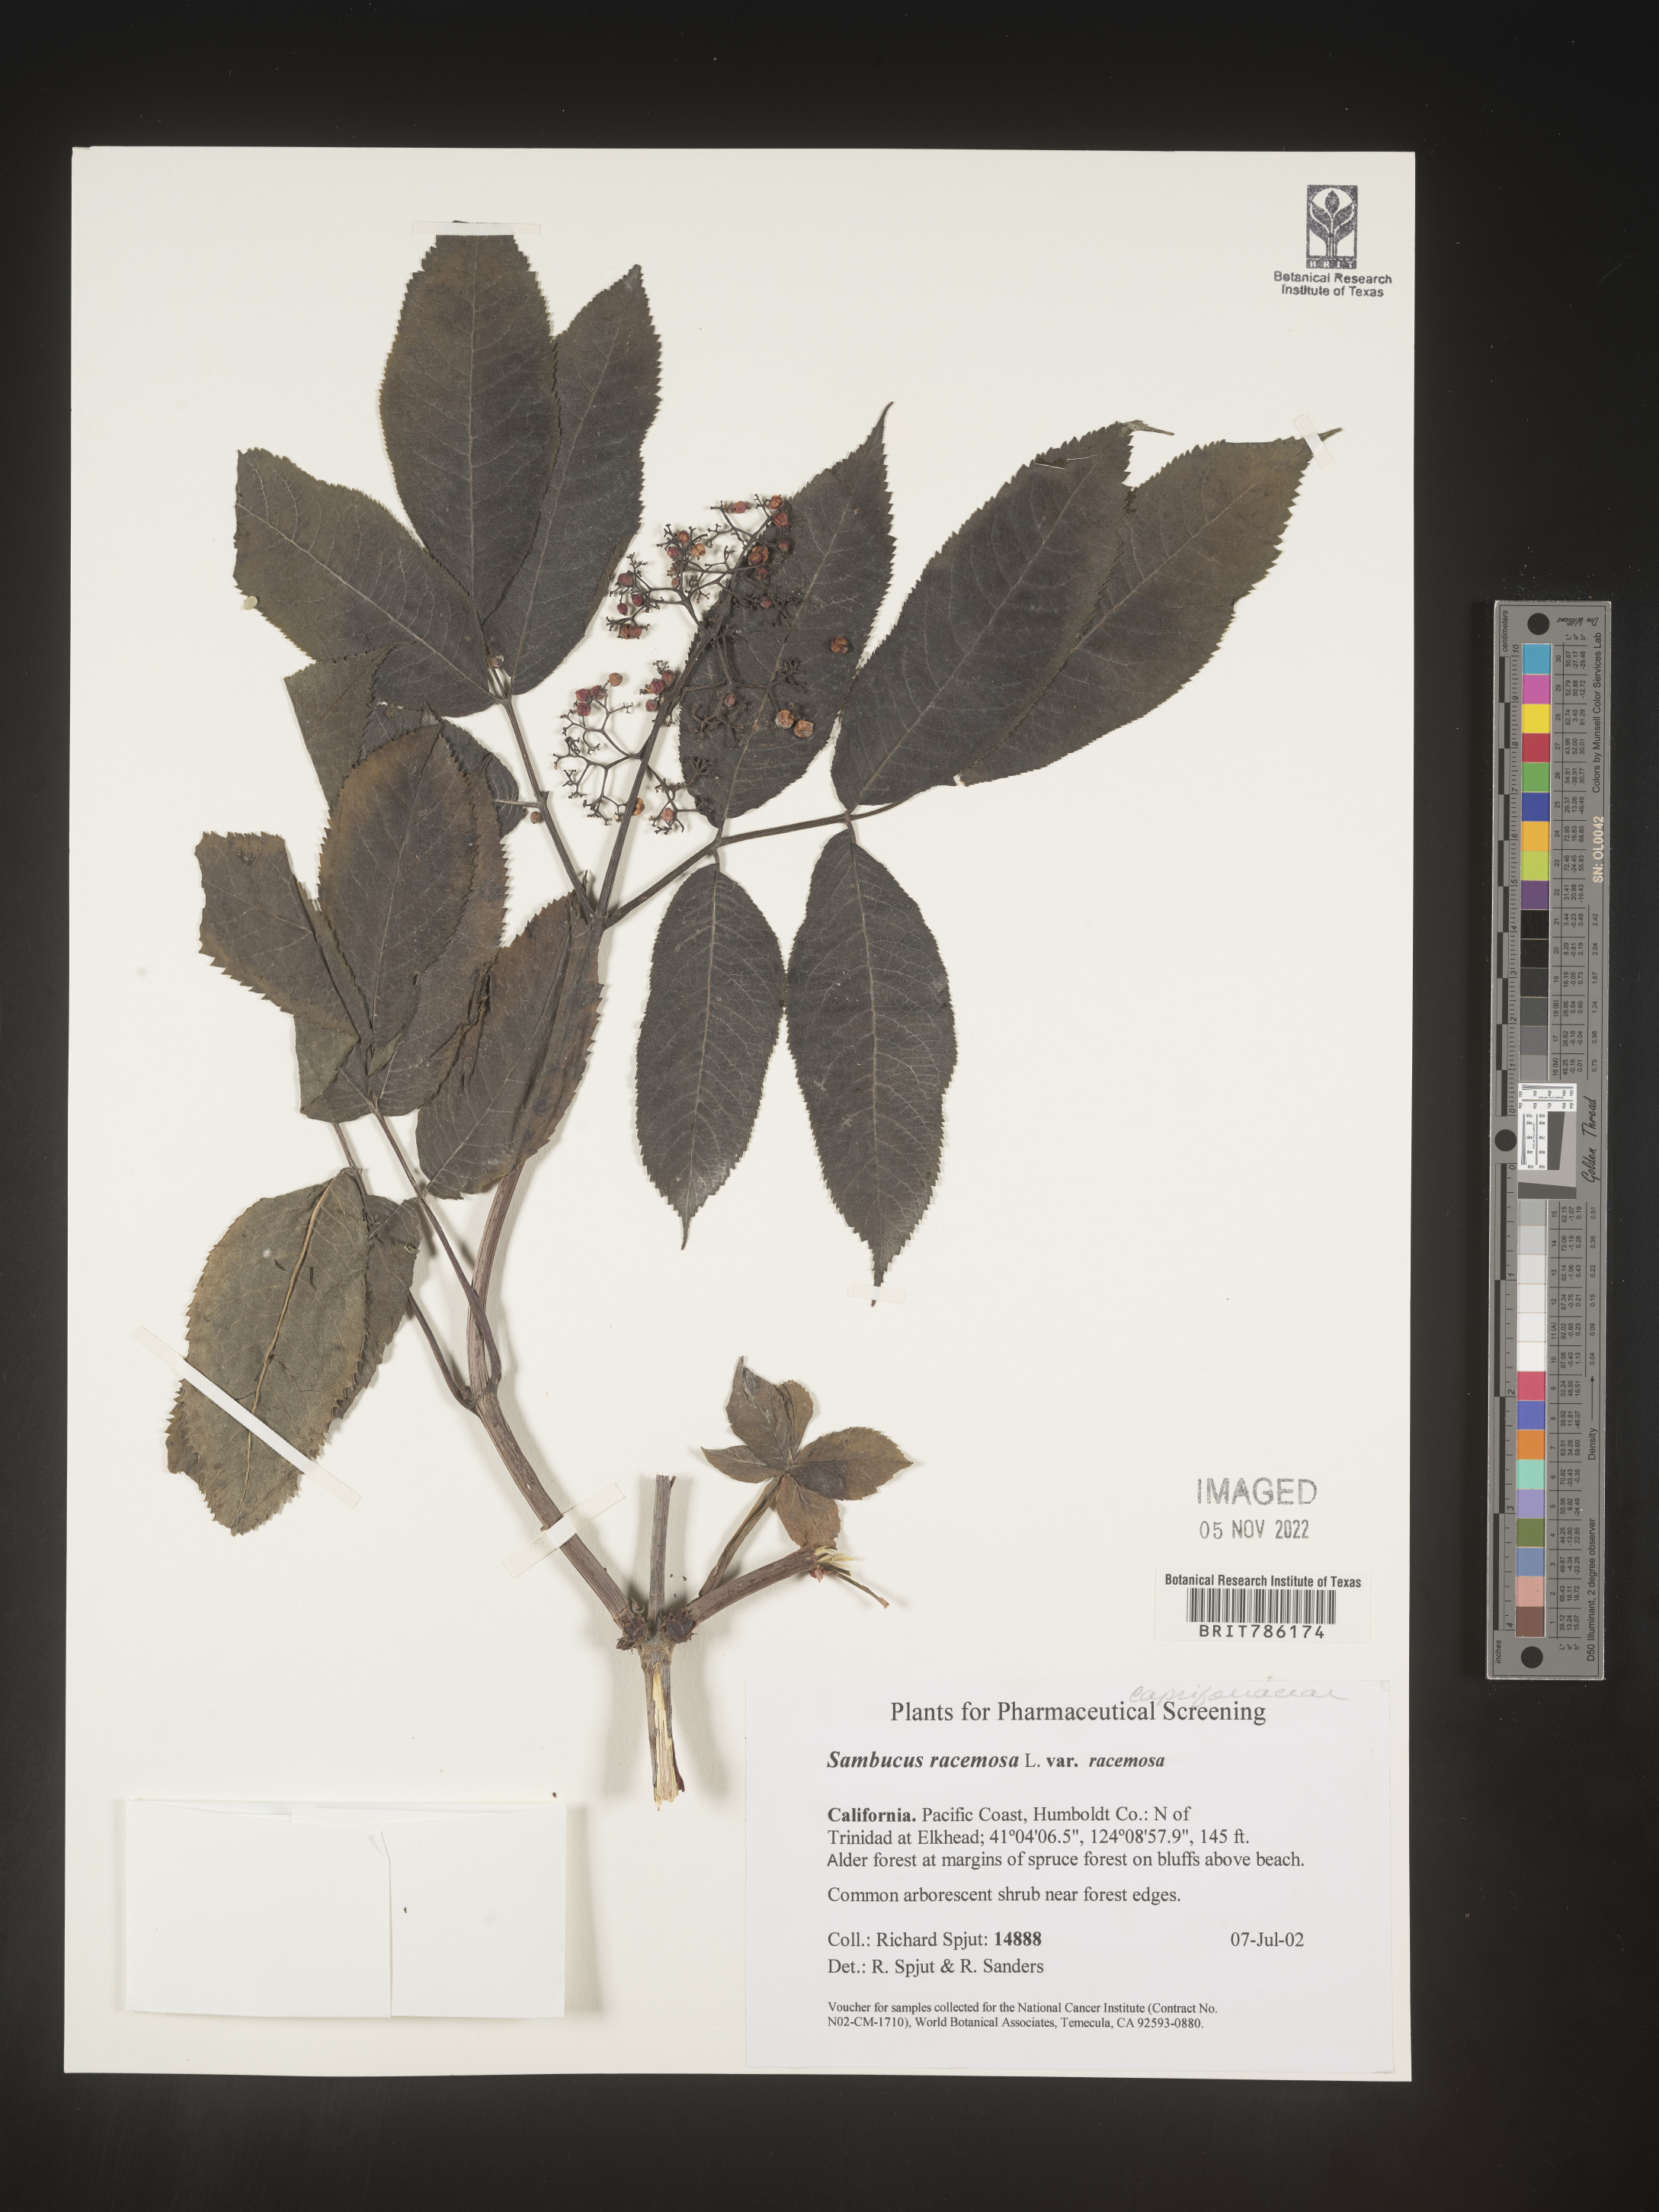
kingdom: Plantae
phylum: Tracheophyta
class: Magnoliopsida
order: Dipsacales
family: Viburnaceae
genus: Sambucus
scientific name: Sambucus
